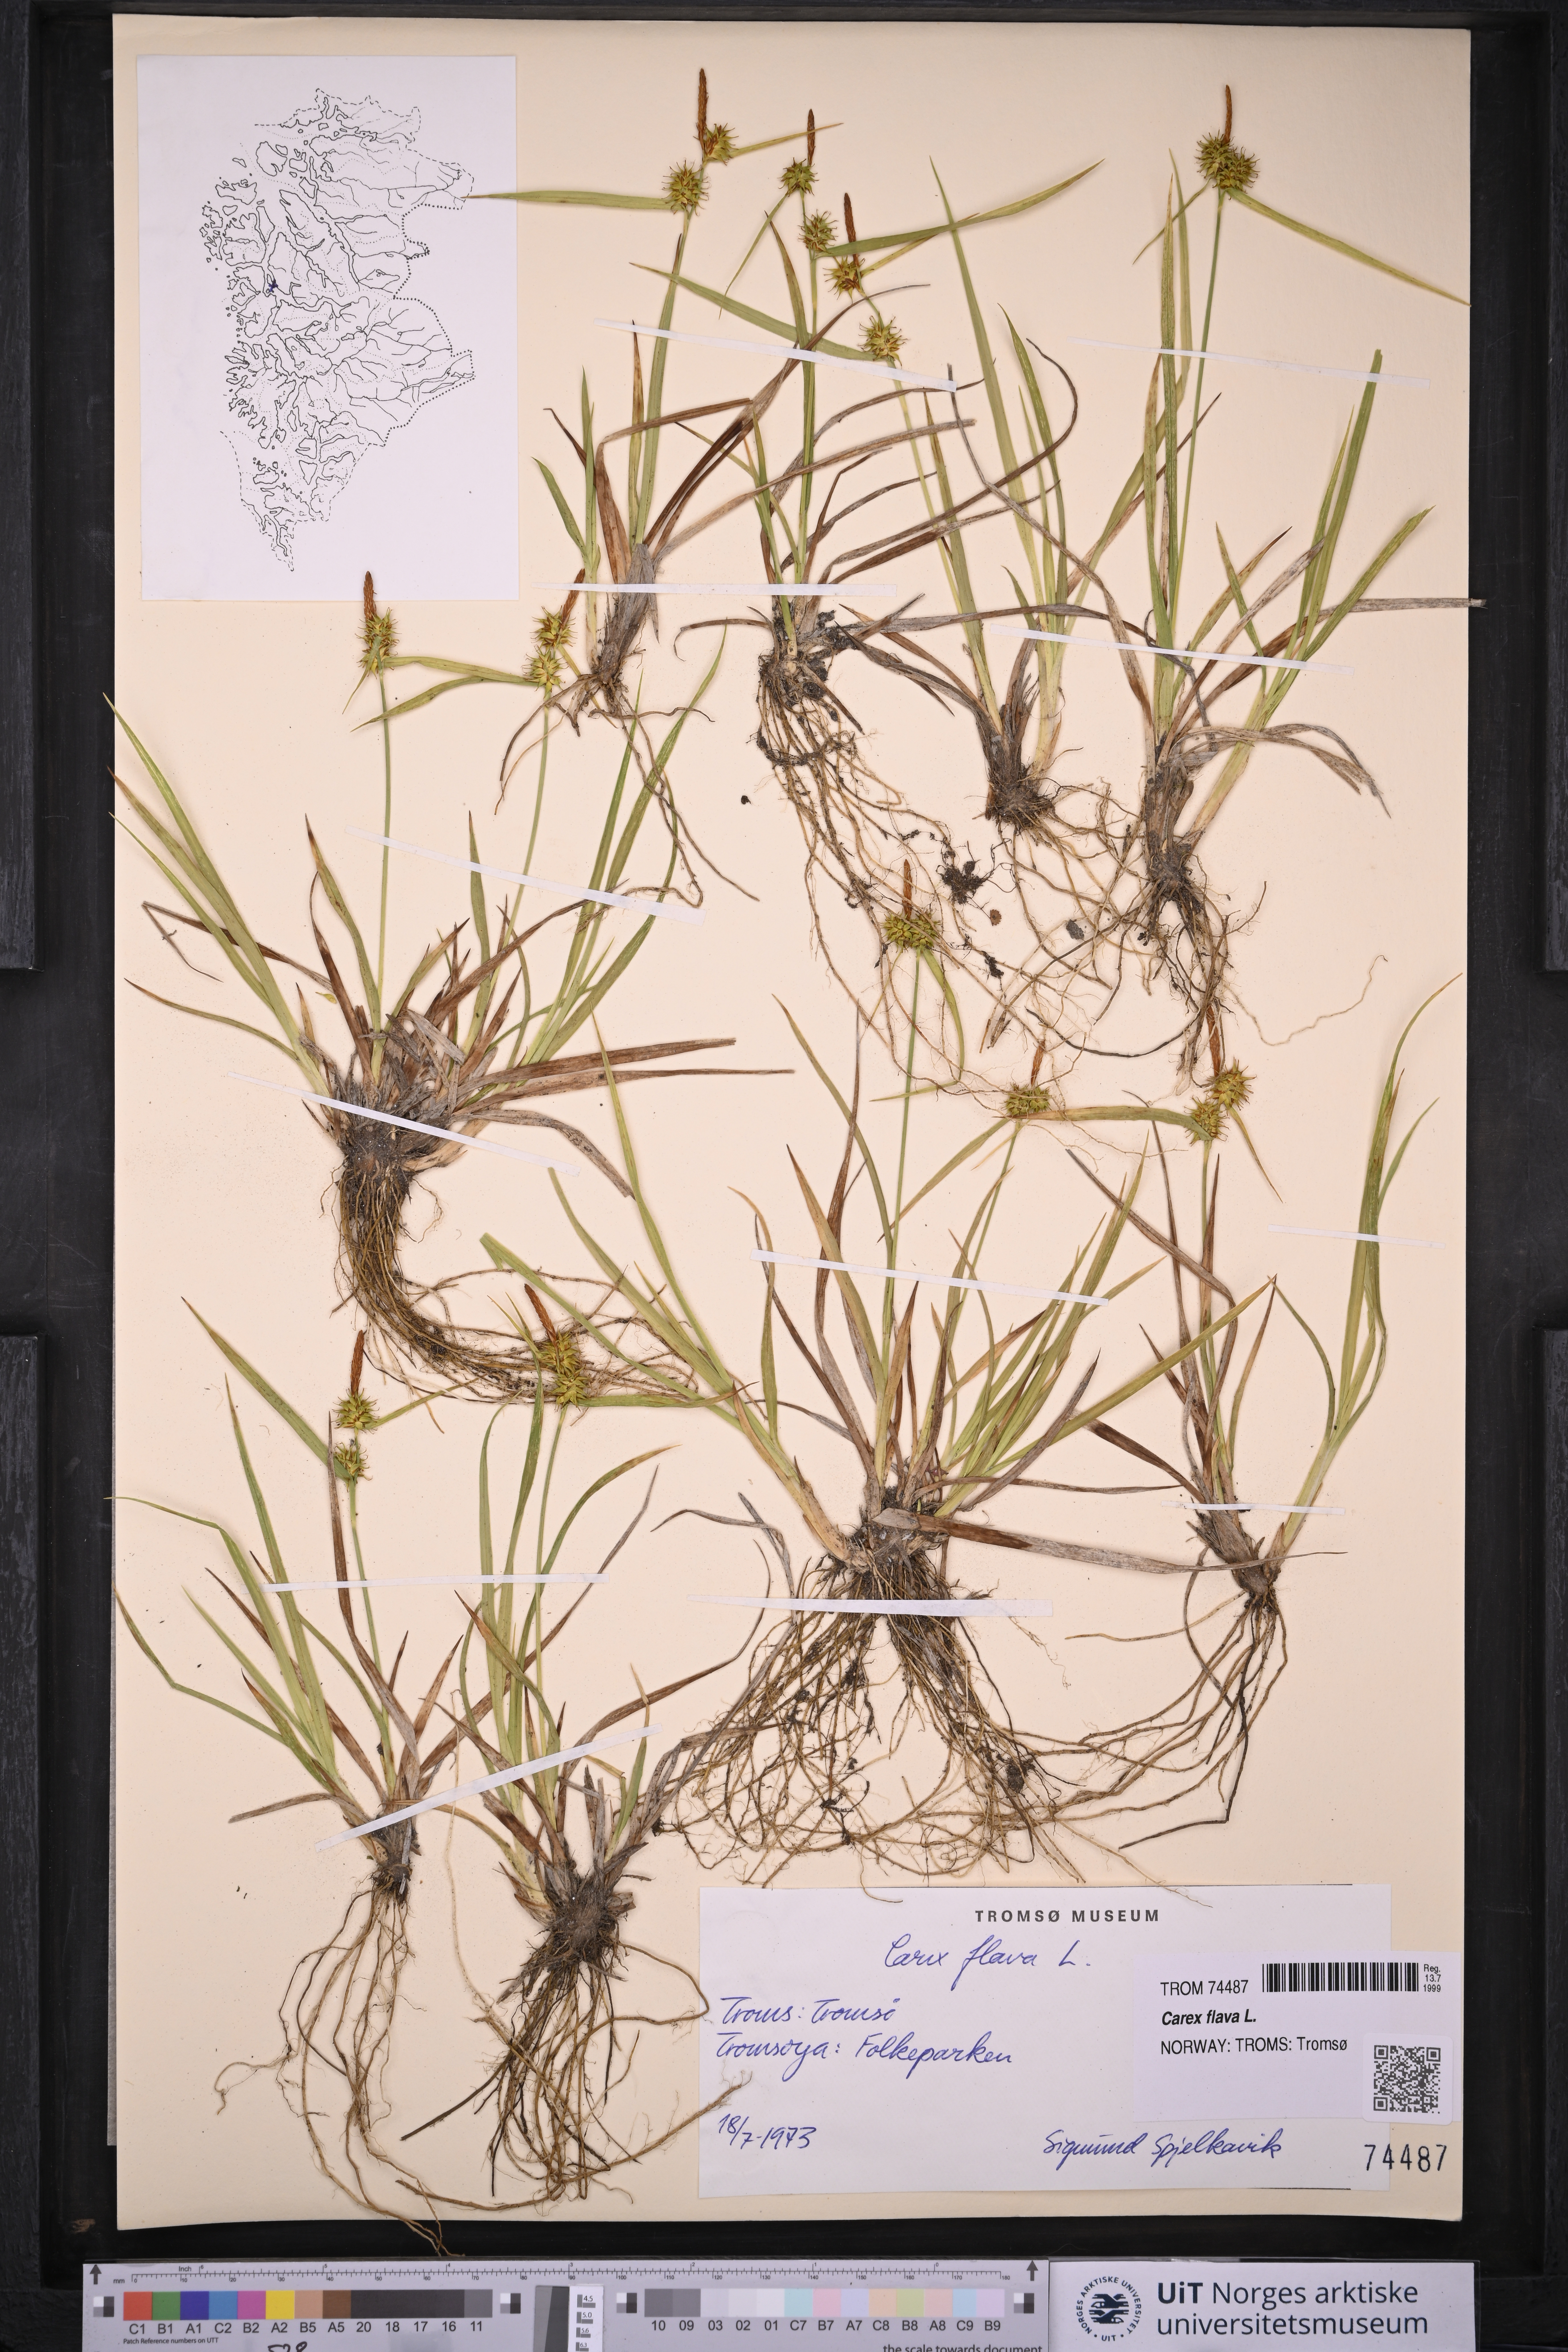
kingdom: Plantae
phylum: Tracheophyta
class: Liliopsida
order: Poales
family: Cyperaceae
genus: Carex
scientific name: Carex flava
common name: Large yellow-sedge
